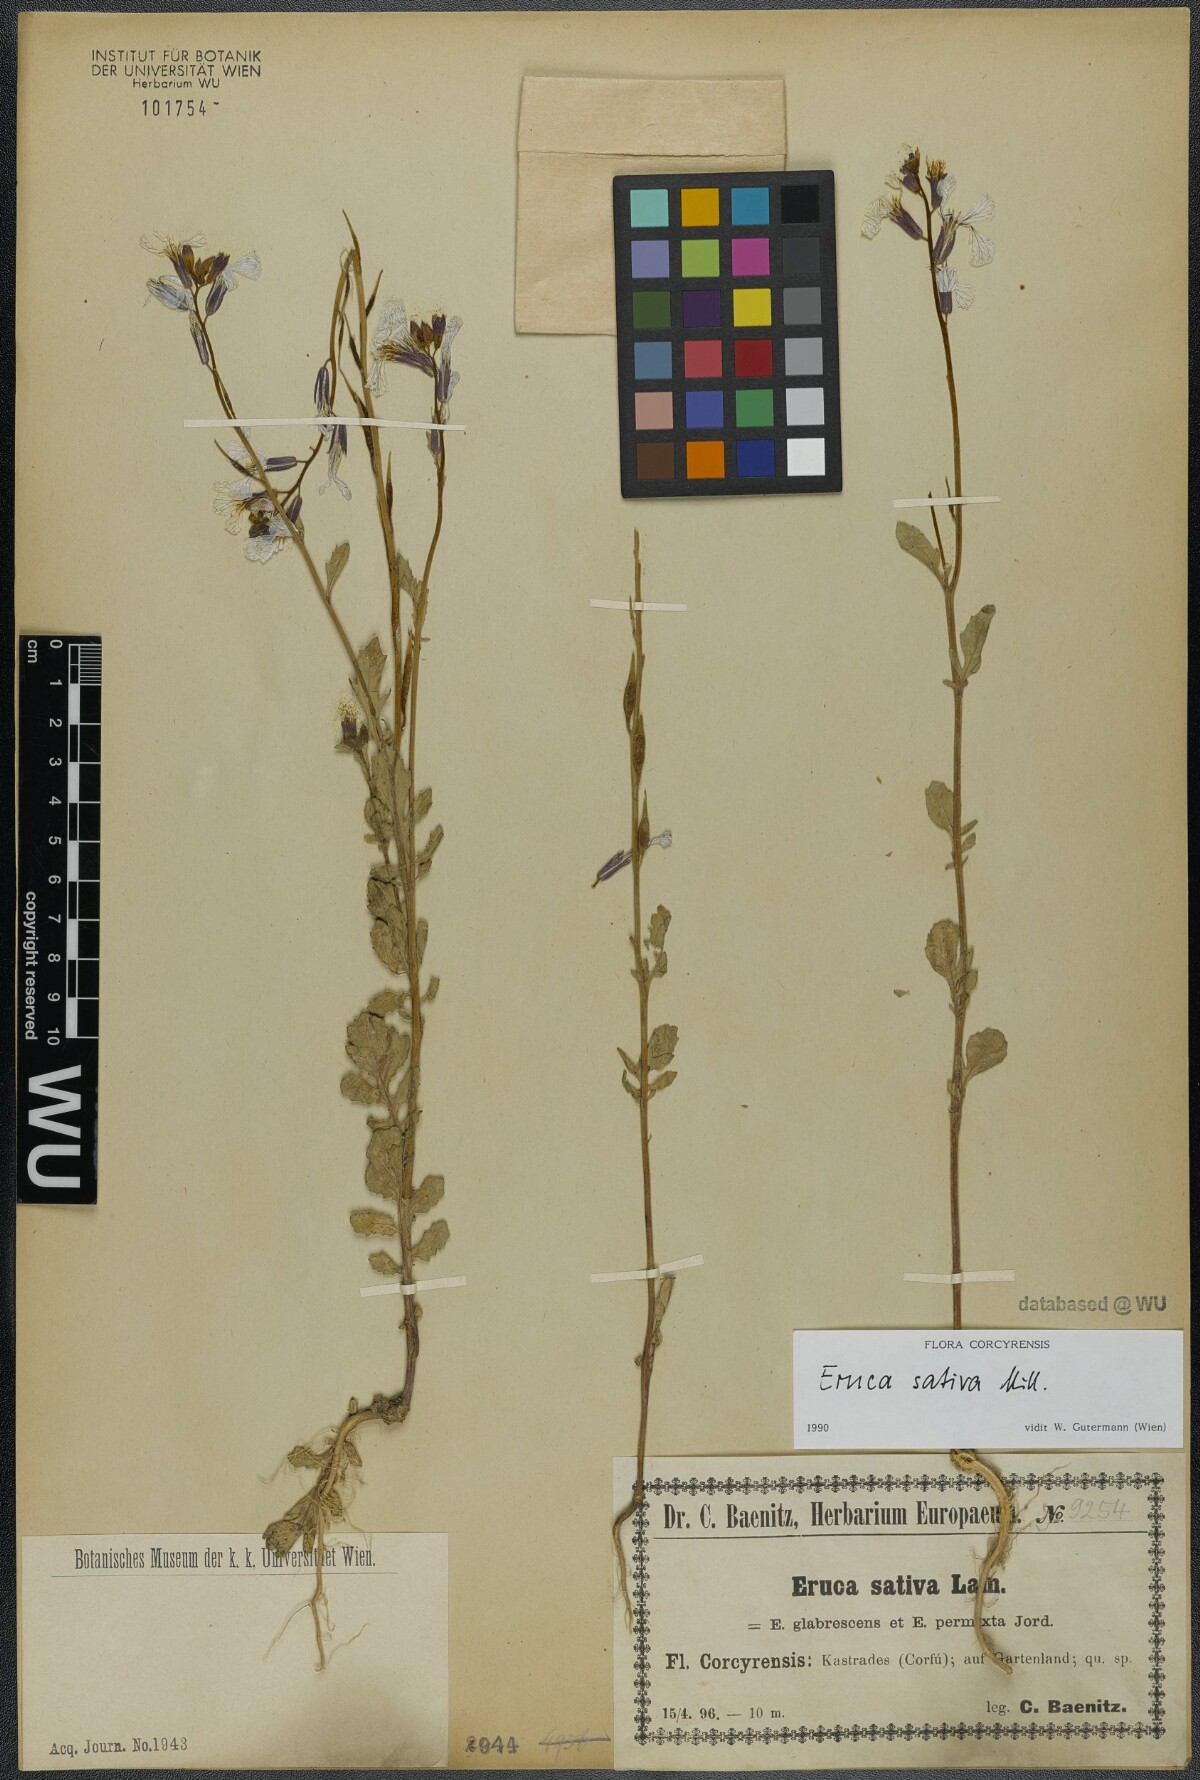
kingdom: Plantae
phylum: Tracheophyta
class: Magnoliopsida
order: Brassicales
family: Brassicaceae
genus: Eruca
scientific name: Eruca vesicaria
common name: Garden rocket
